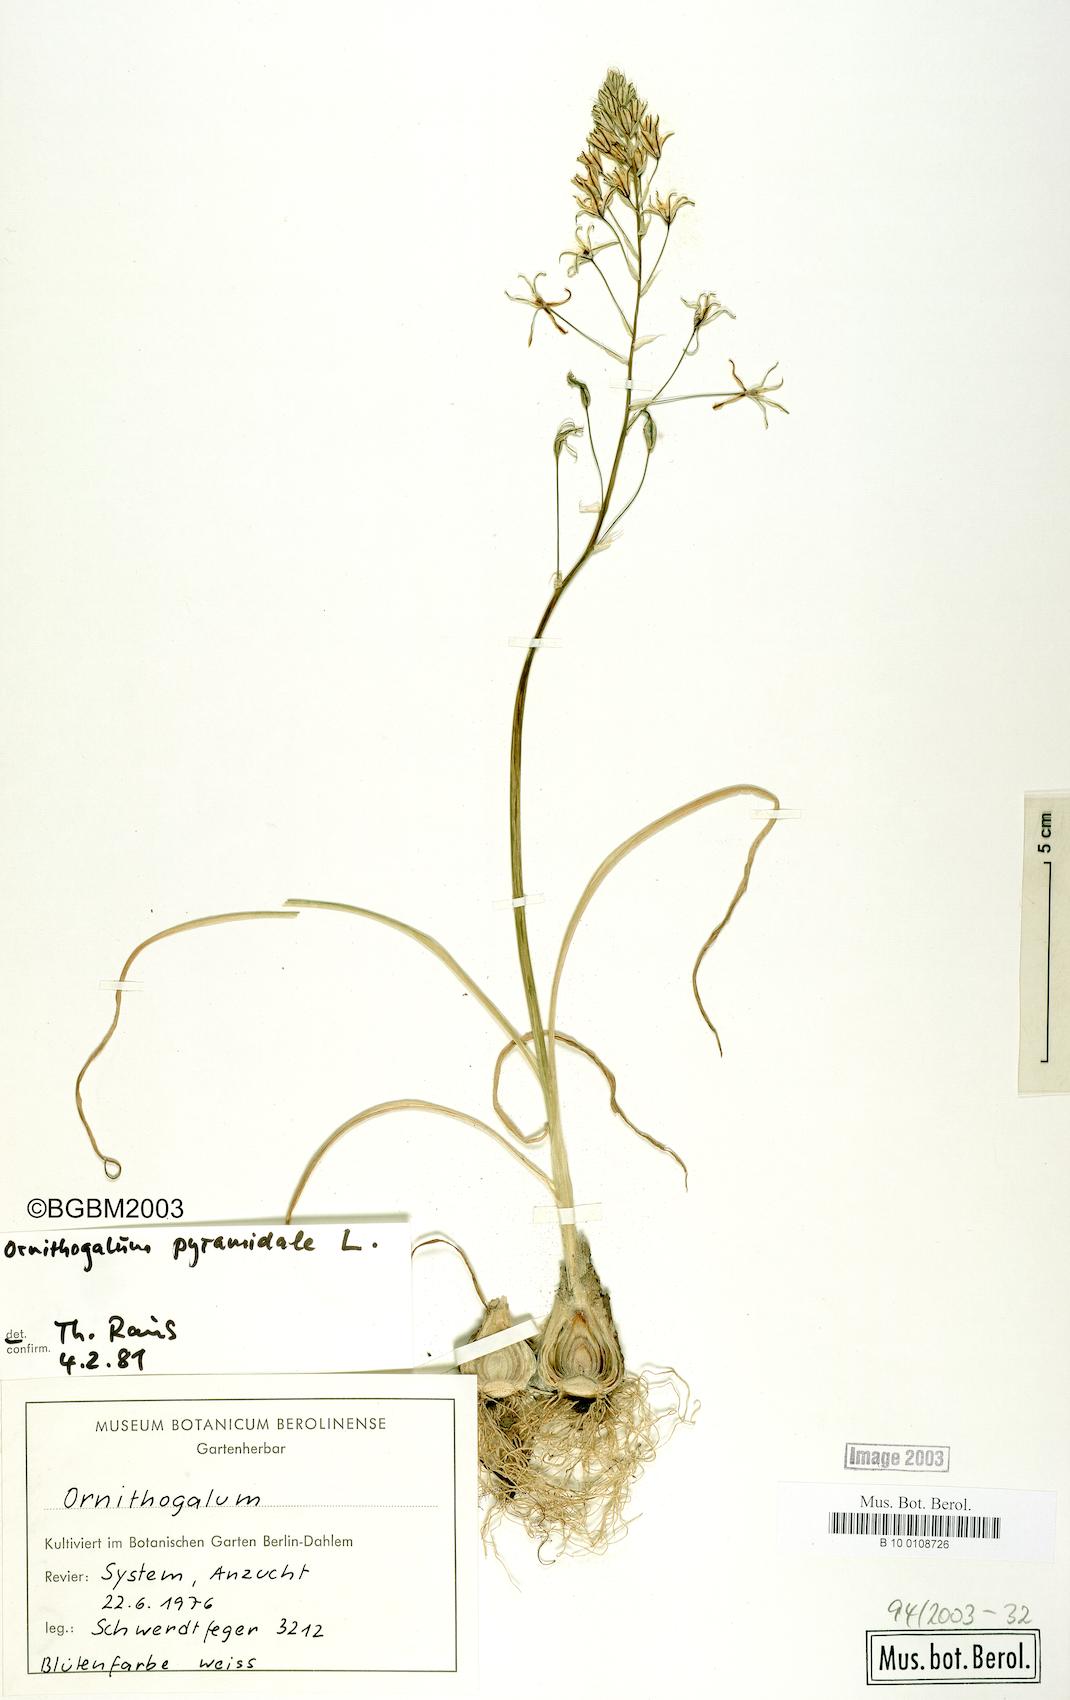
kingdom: Plantae
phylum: Tracheophyta
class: Liliopsida
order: Asparagales
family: Asparagaceae
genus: Ornithogalum
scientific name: Ornithogalum pyramidale
